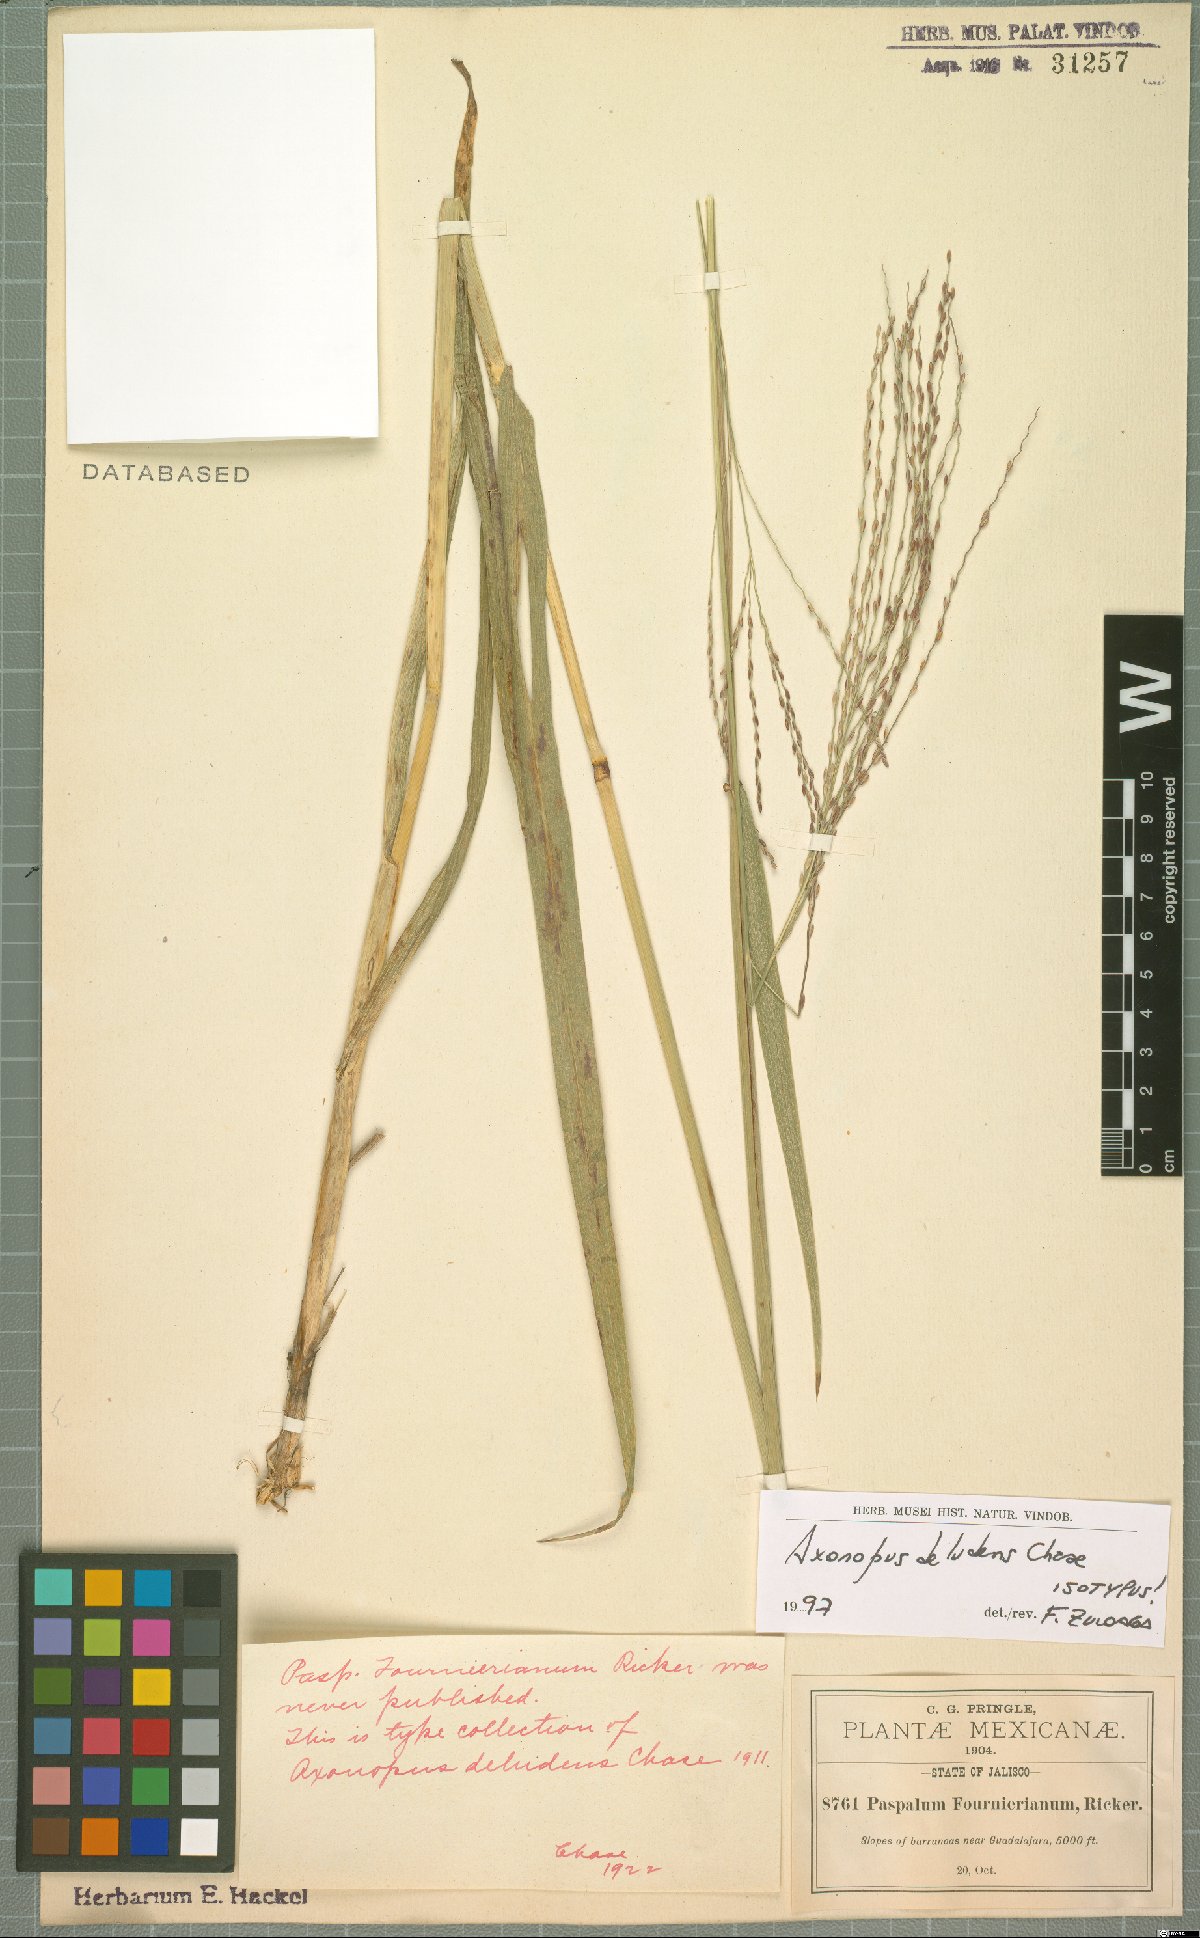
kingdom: Plantae
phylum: Tracheophyta
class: Liliopsida
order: Poales
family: Poaceae
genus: Axonopus
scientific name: Axonopus scoparius
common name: Imperial grass
